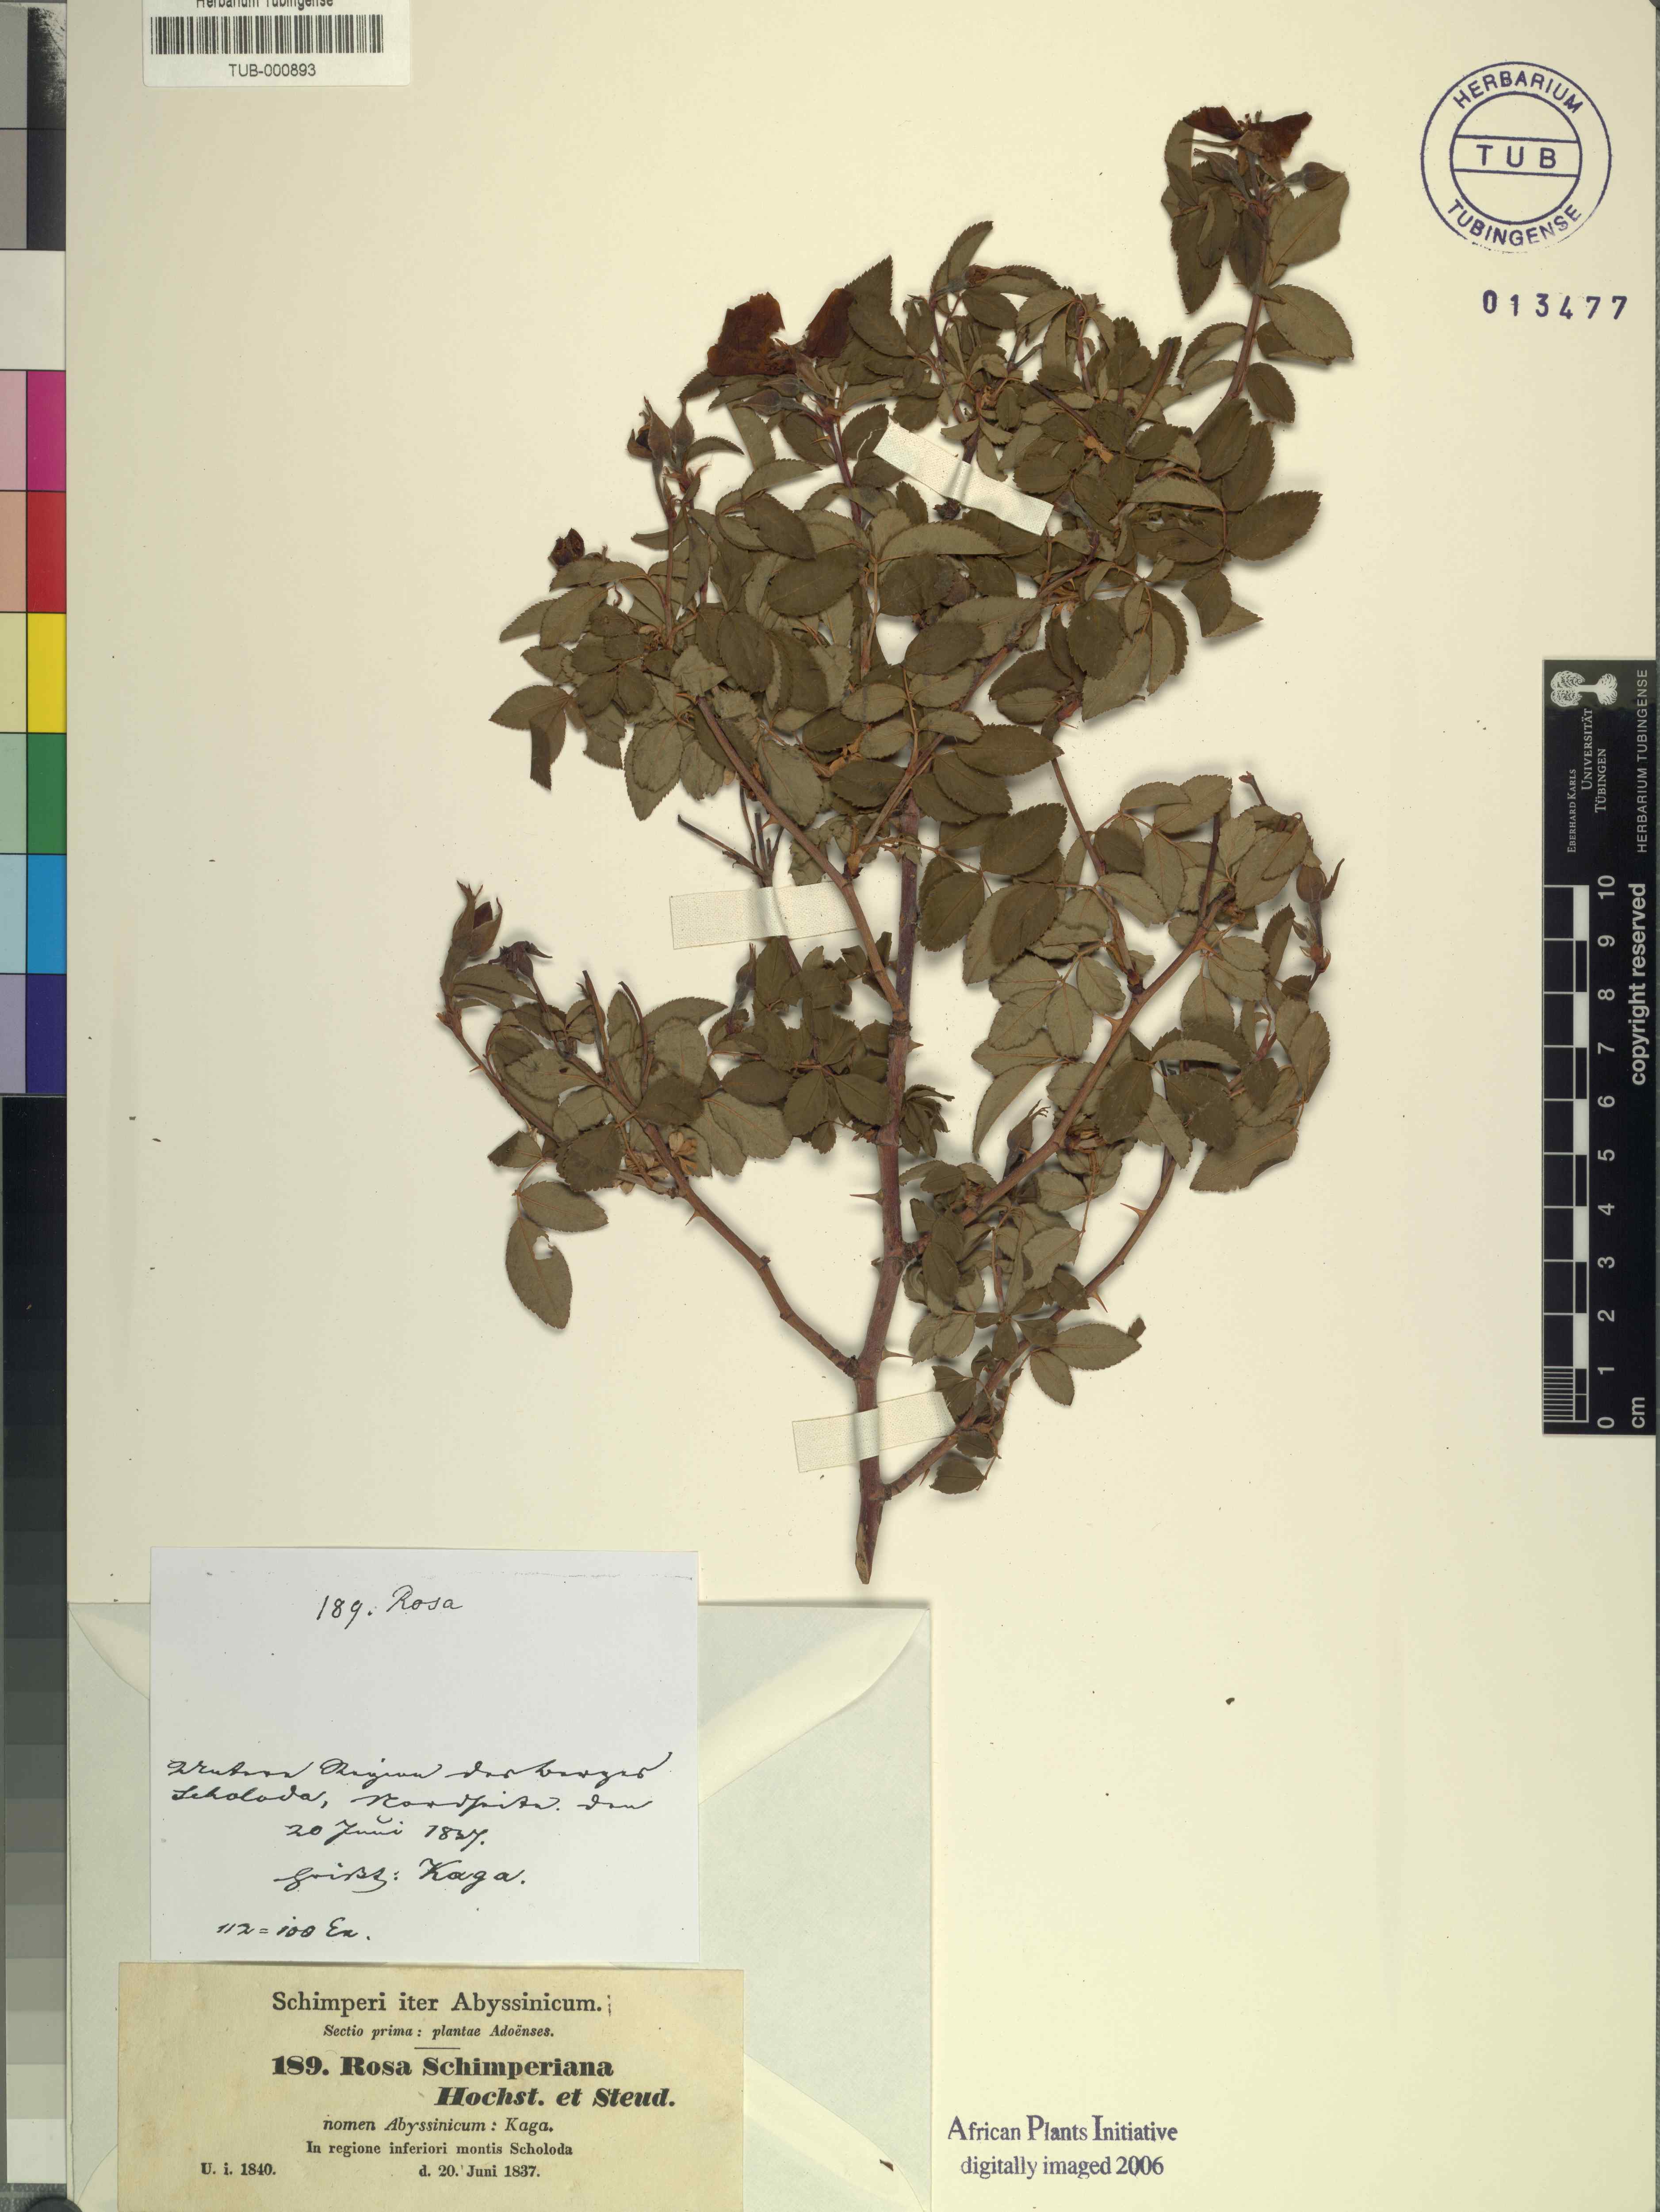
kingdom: Plantae
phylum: Tracheophyta
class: Magnoliopsida
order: Rosales
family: Rosaceae
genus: Rosa
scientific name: Rosa abyssinica
